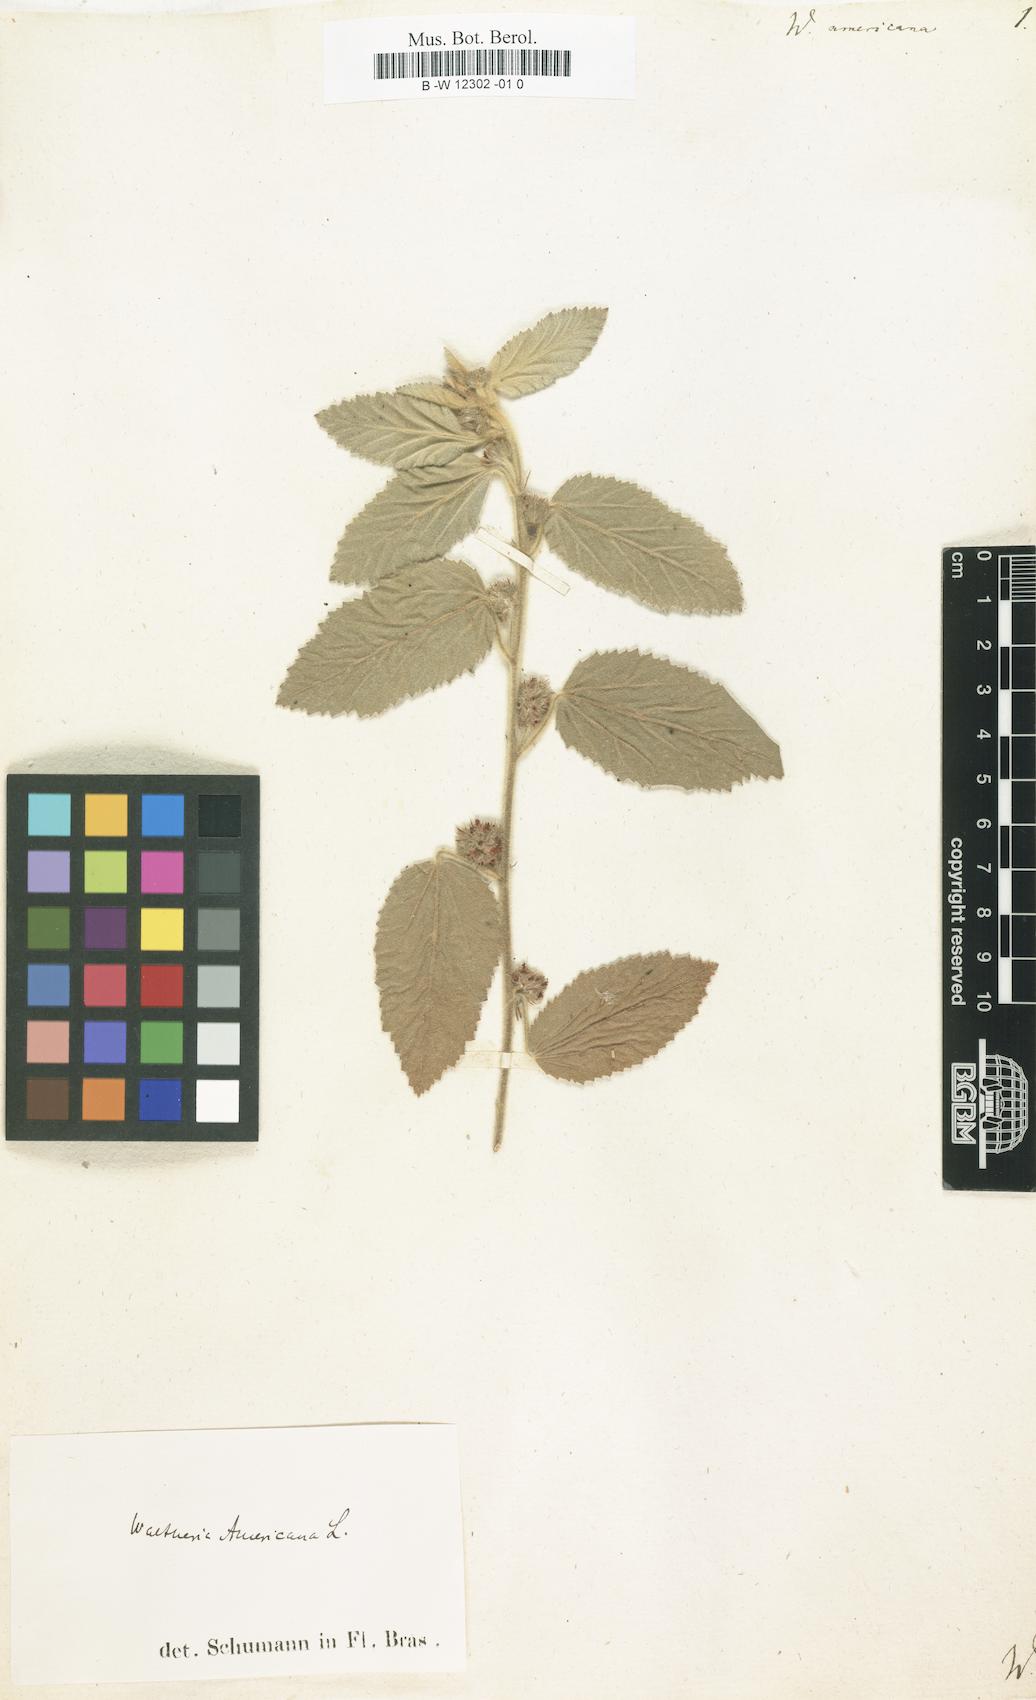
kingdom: Plantae
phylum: Tracheophyta
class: Magnoliopsida
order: Malvales
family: Malvaceae
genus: Waltheria
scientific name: Waltheria indica
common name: Leather-coat
